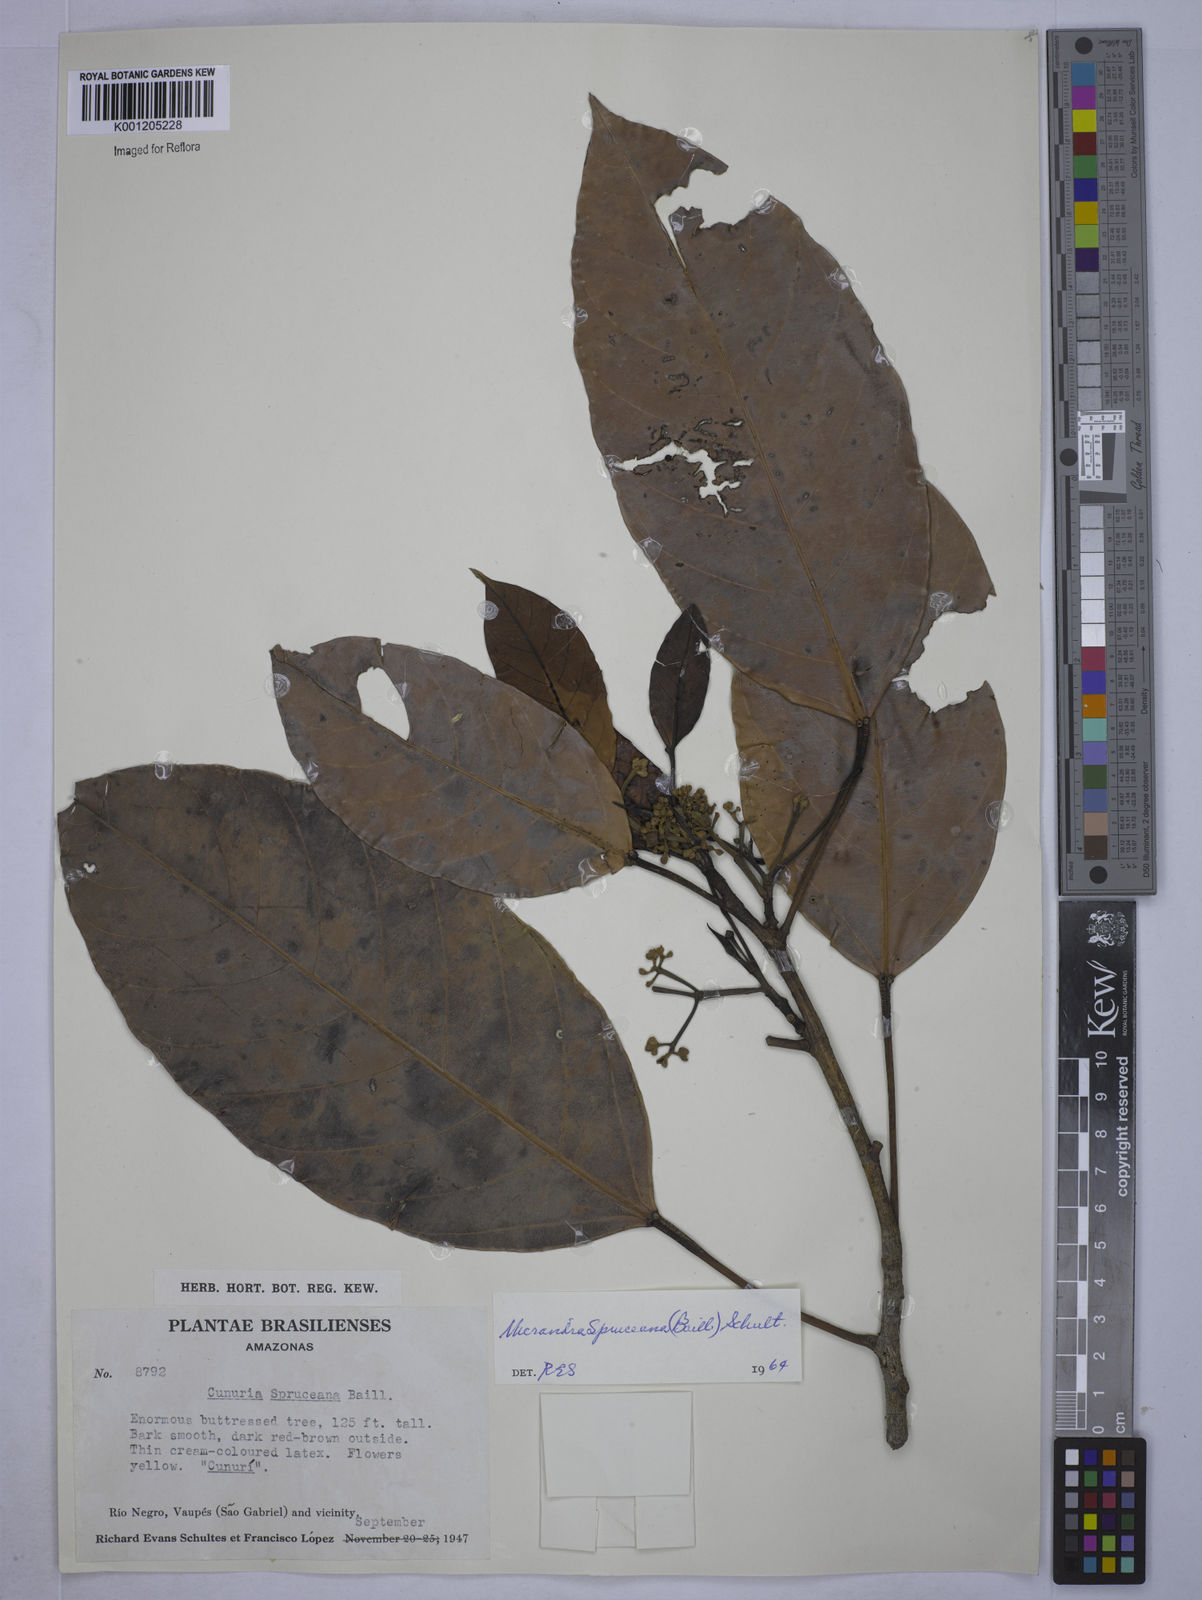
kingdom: Plantae
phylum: Tracheophyta
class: Magnoliopsida
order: Malpighiales
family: Euphorbiaceae
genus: Micrandra
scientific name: Micrandra spruceana
